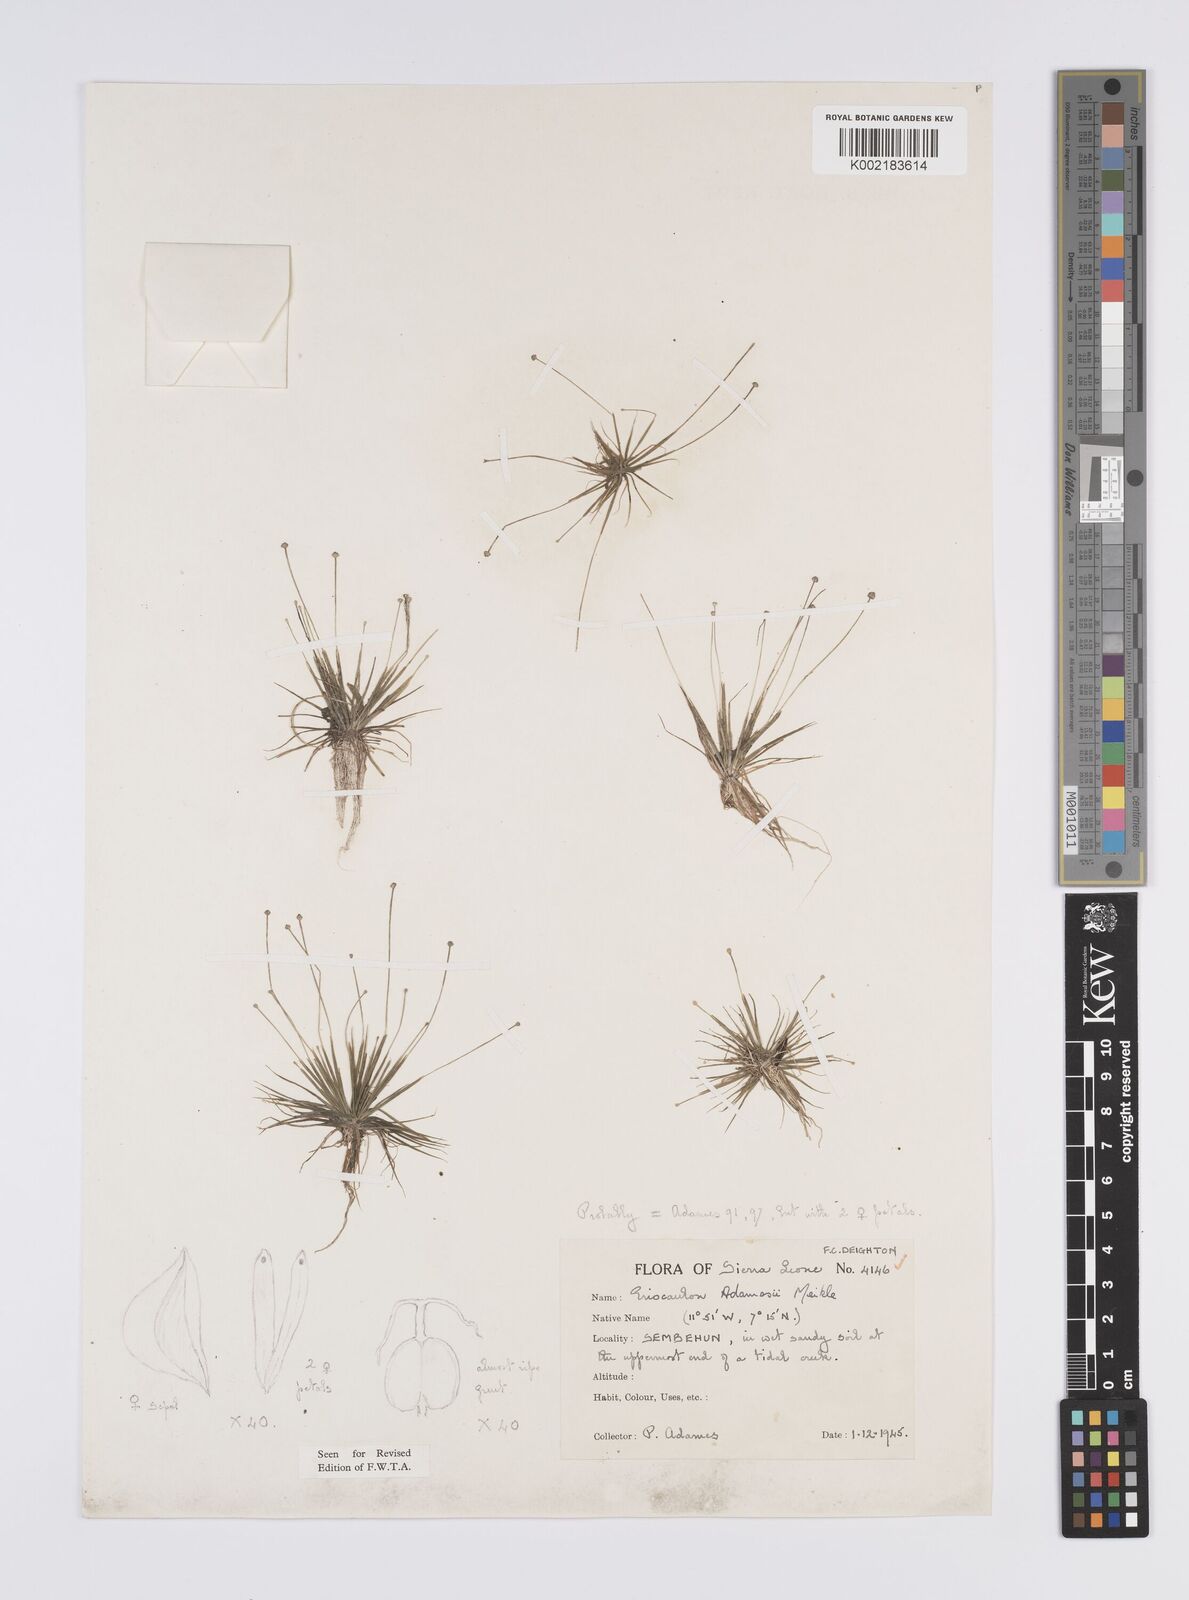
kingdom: Plantae
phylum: Tracheophyta
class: Liliopsida
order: Poales
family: Eriocaulaceae
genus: Eriocaulon
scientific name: Eriocaulon adamesii
